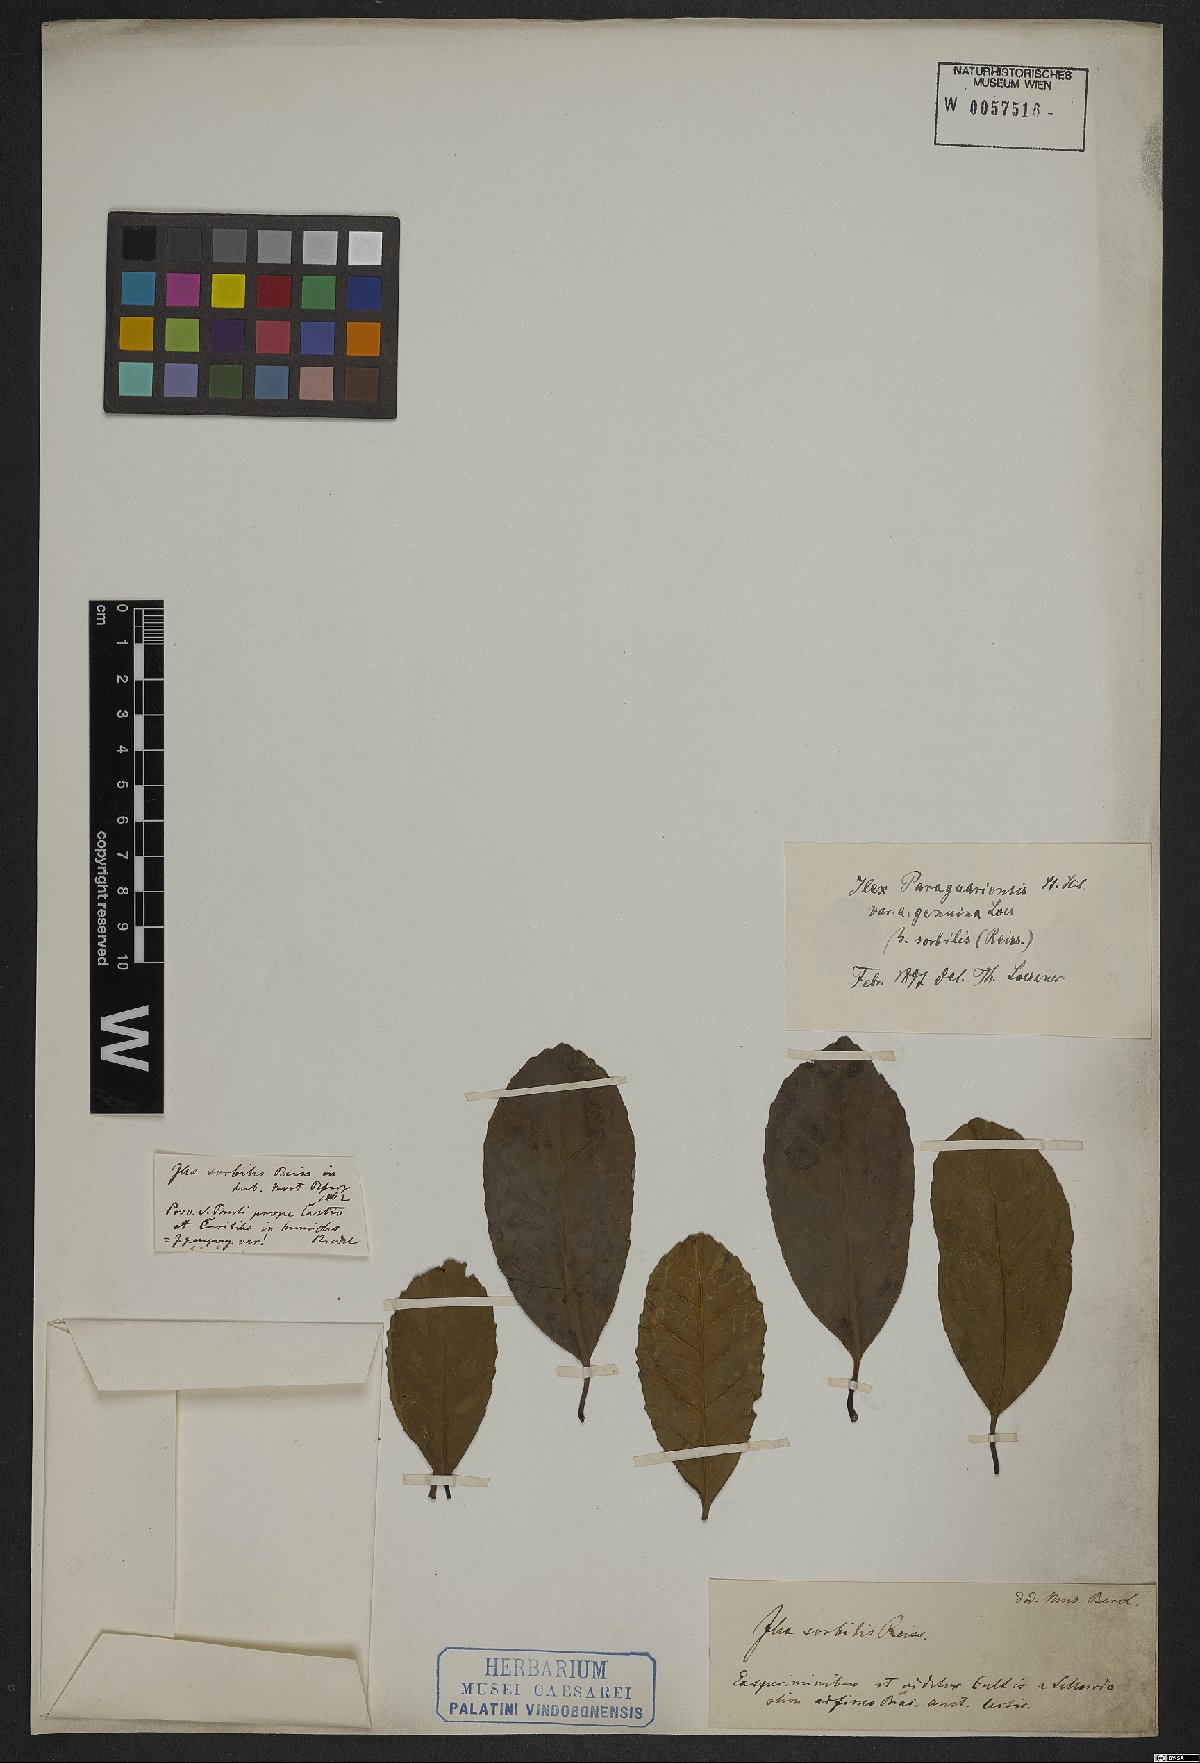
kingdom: Plantae
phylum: Tracheophyta
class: Magnoliopsida
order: Aquifoliales
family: Aquifoliaceae
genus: Ilex
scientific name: Ilex paraguariensis
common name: Paraguay tea
